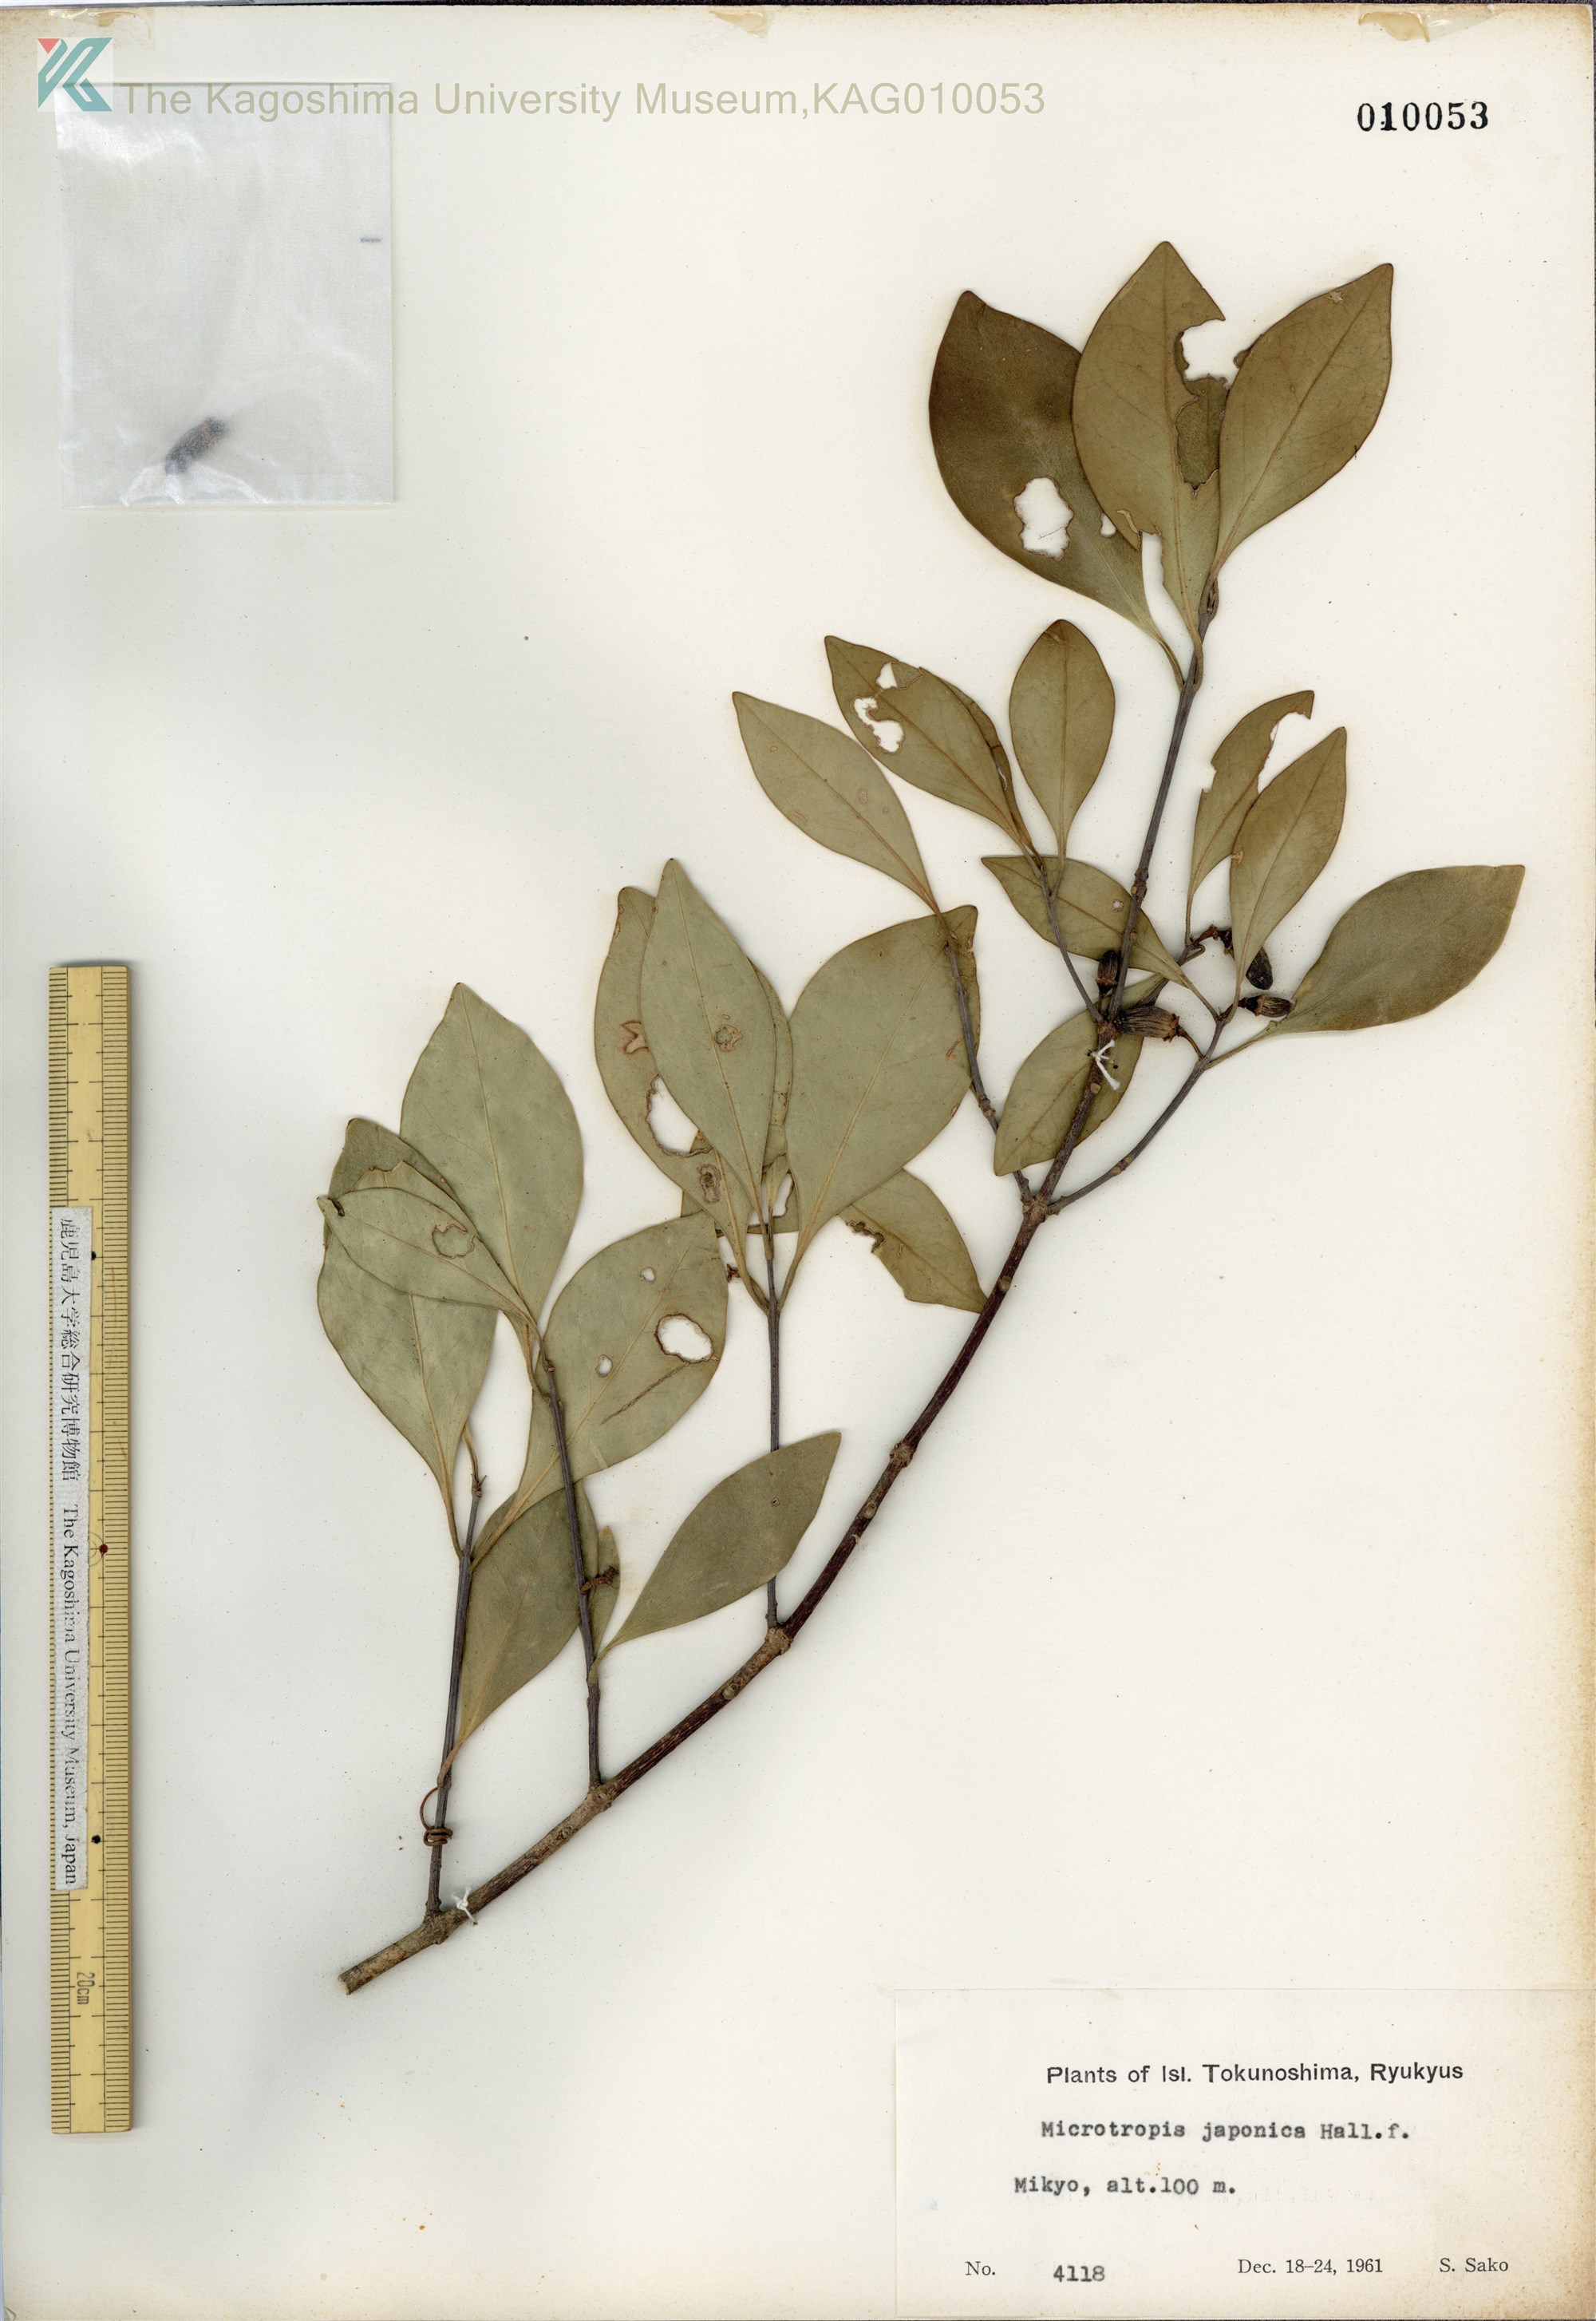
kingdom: Plantae
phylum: Tracheophyta
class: Magnoliopsida
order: Celastrales
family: Celastraceae
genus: Microtropis
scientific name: Microtropis japonica
